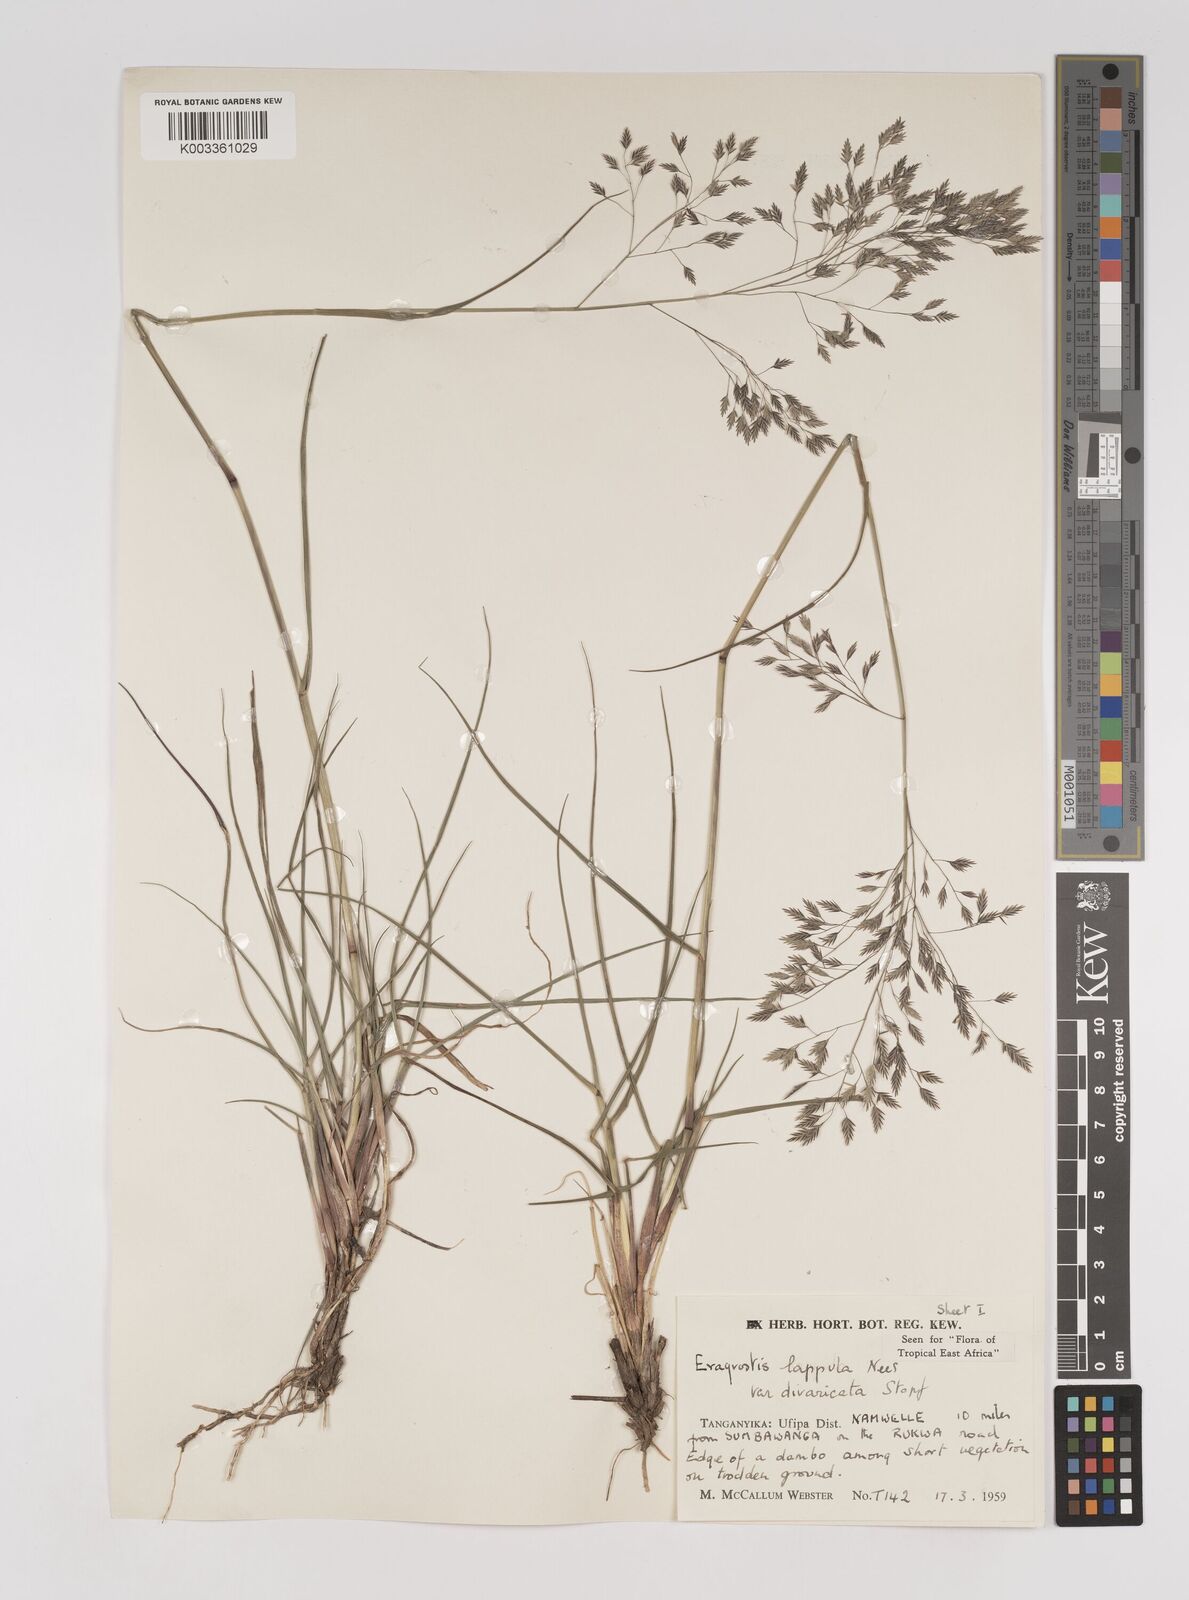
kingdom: Plantae
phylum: Tracheophyta
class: Liliopsida
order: Poales
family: Poaceae
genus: Eragrostis
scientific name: Eragrostis lappula
